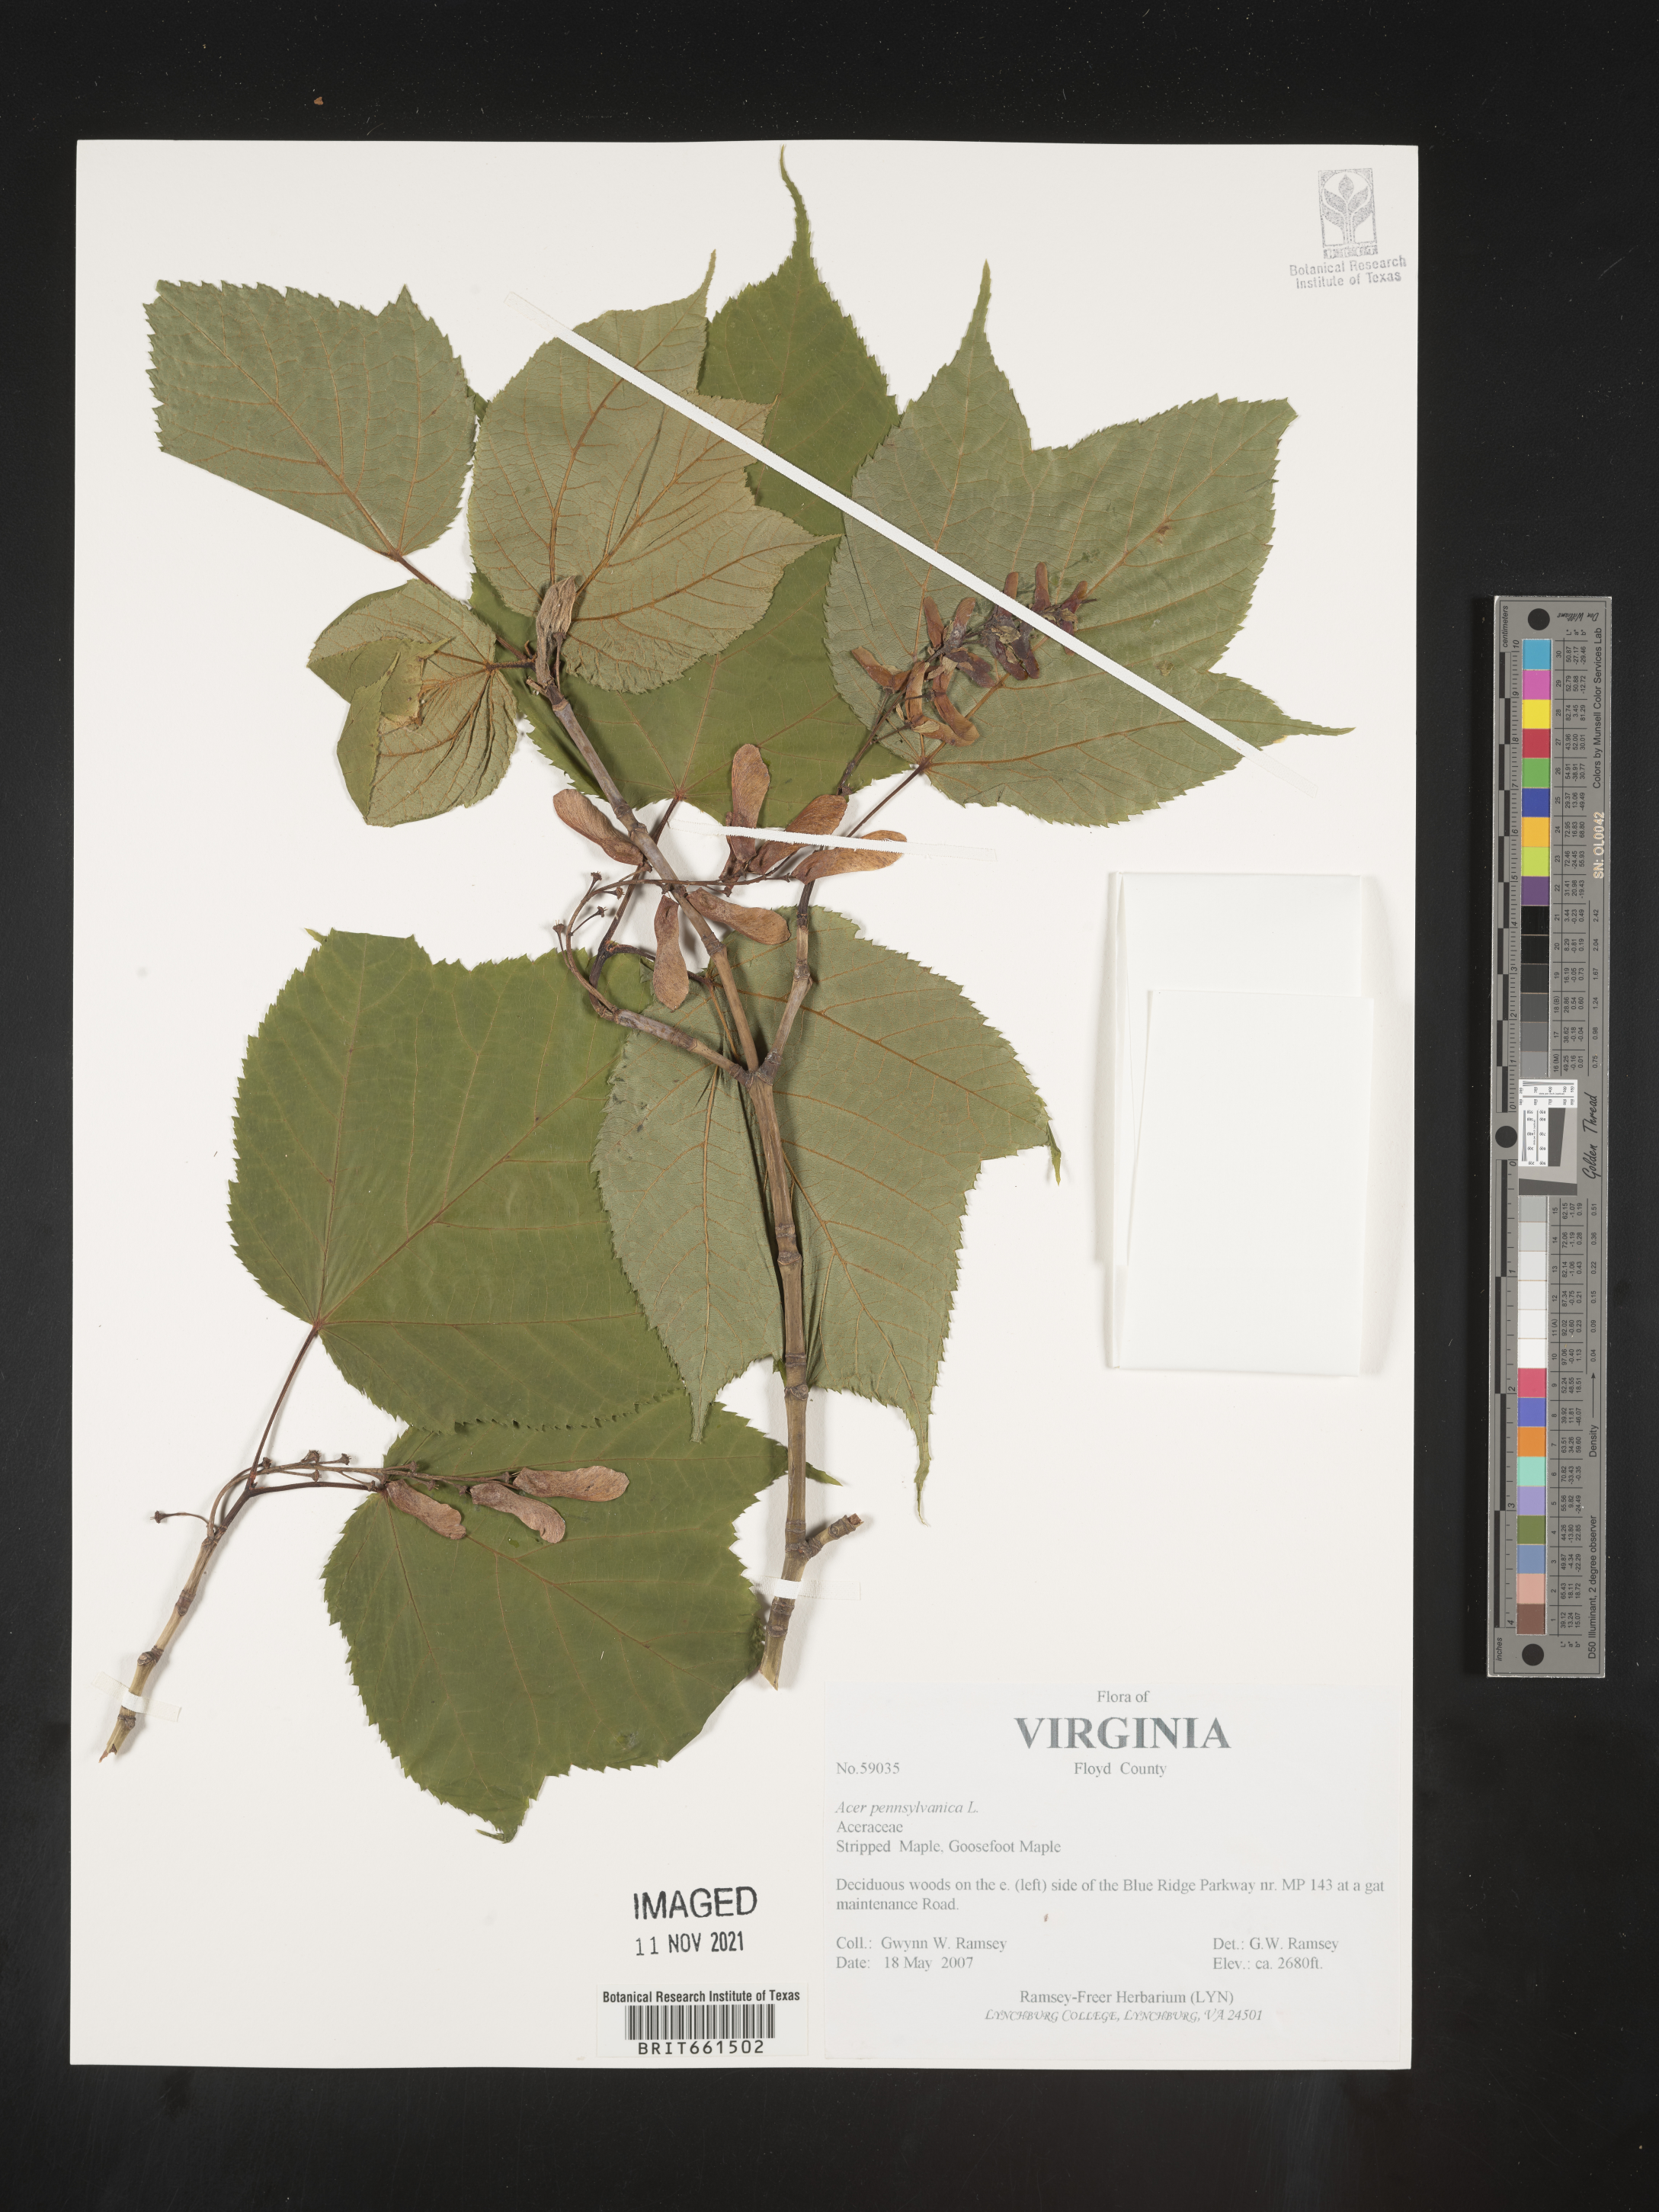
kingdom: Plantae
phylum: Tracheophyta
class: Magnoliopsida
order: Sapindales
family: Sapindaceae
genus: Acer
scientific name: Acer pensylvanicum
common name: Moosewood
